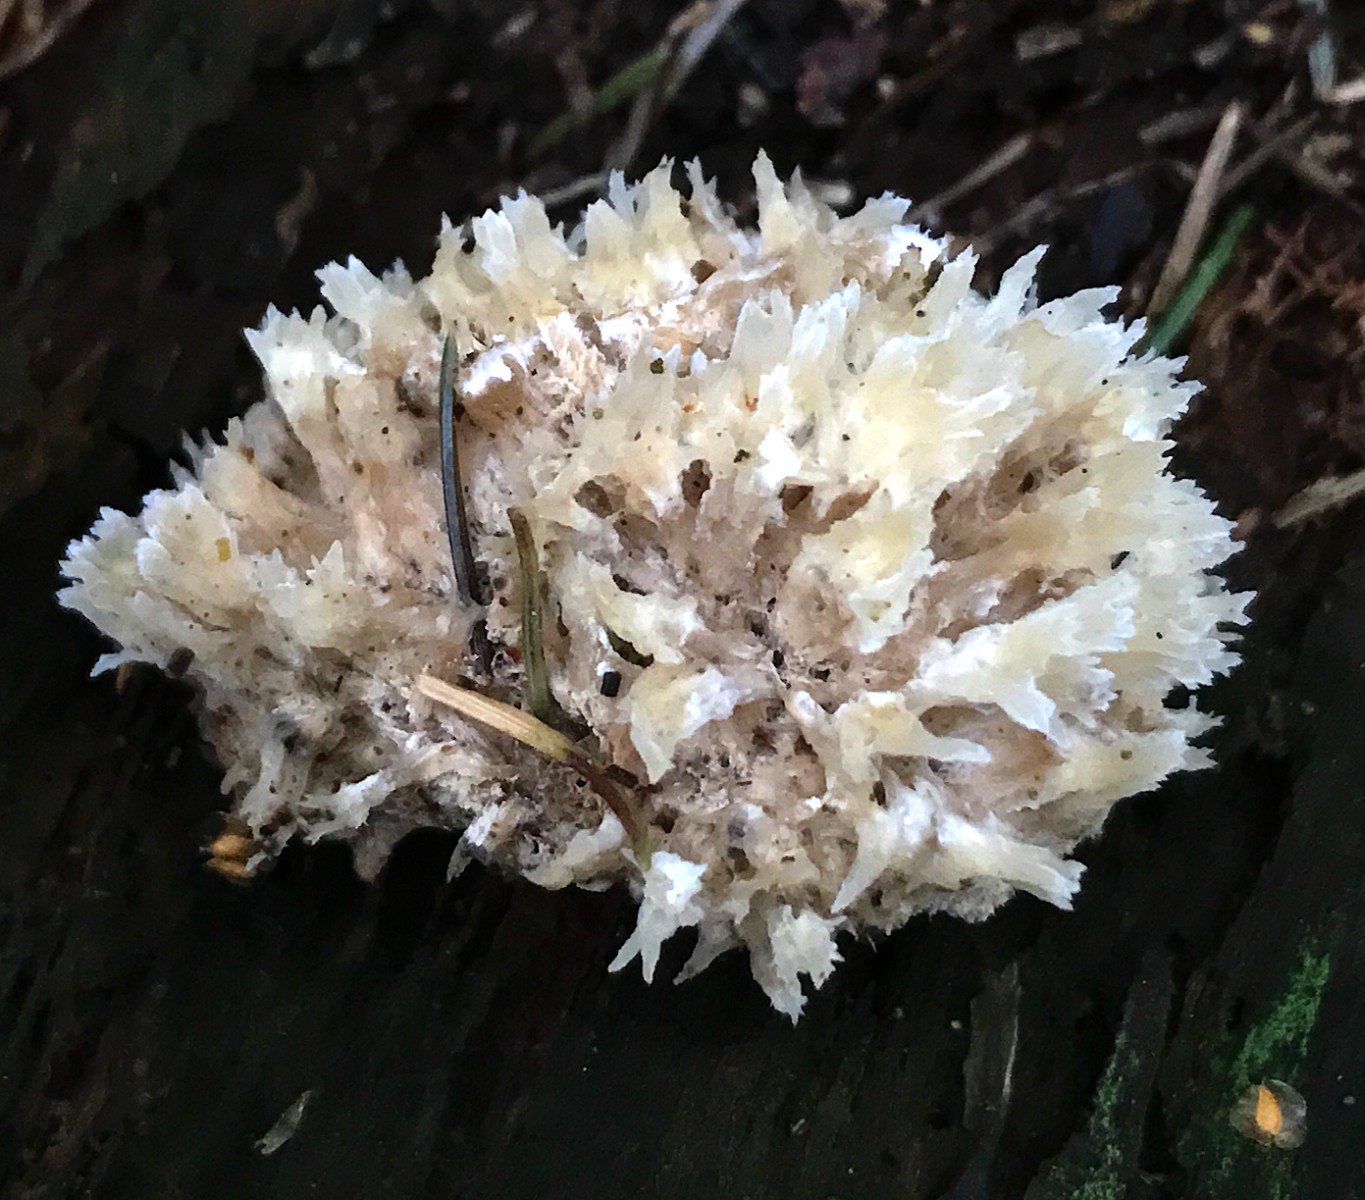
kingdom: Fungi
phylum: Basidiomycota
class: Agaricomycetes
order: Polyporales
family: Dacryobolaceae
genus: Postia
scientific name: Postia ptychogaster
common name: støvende kødporesvamp
